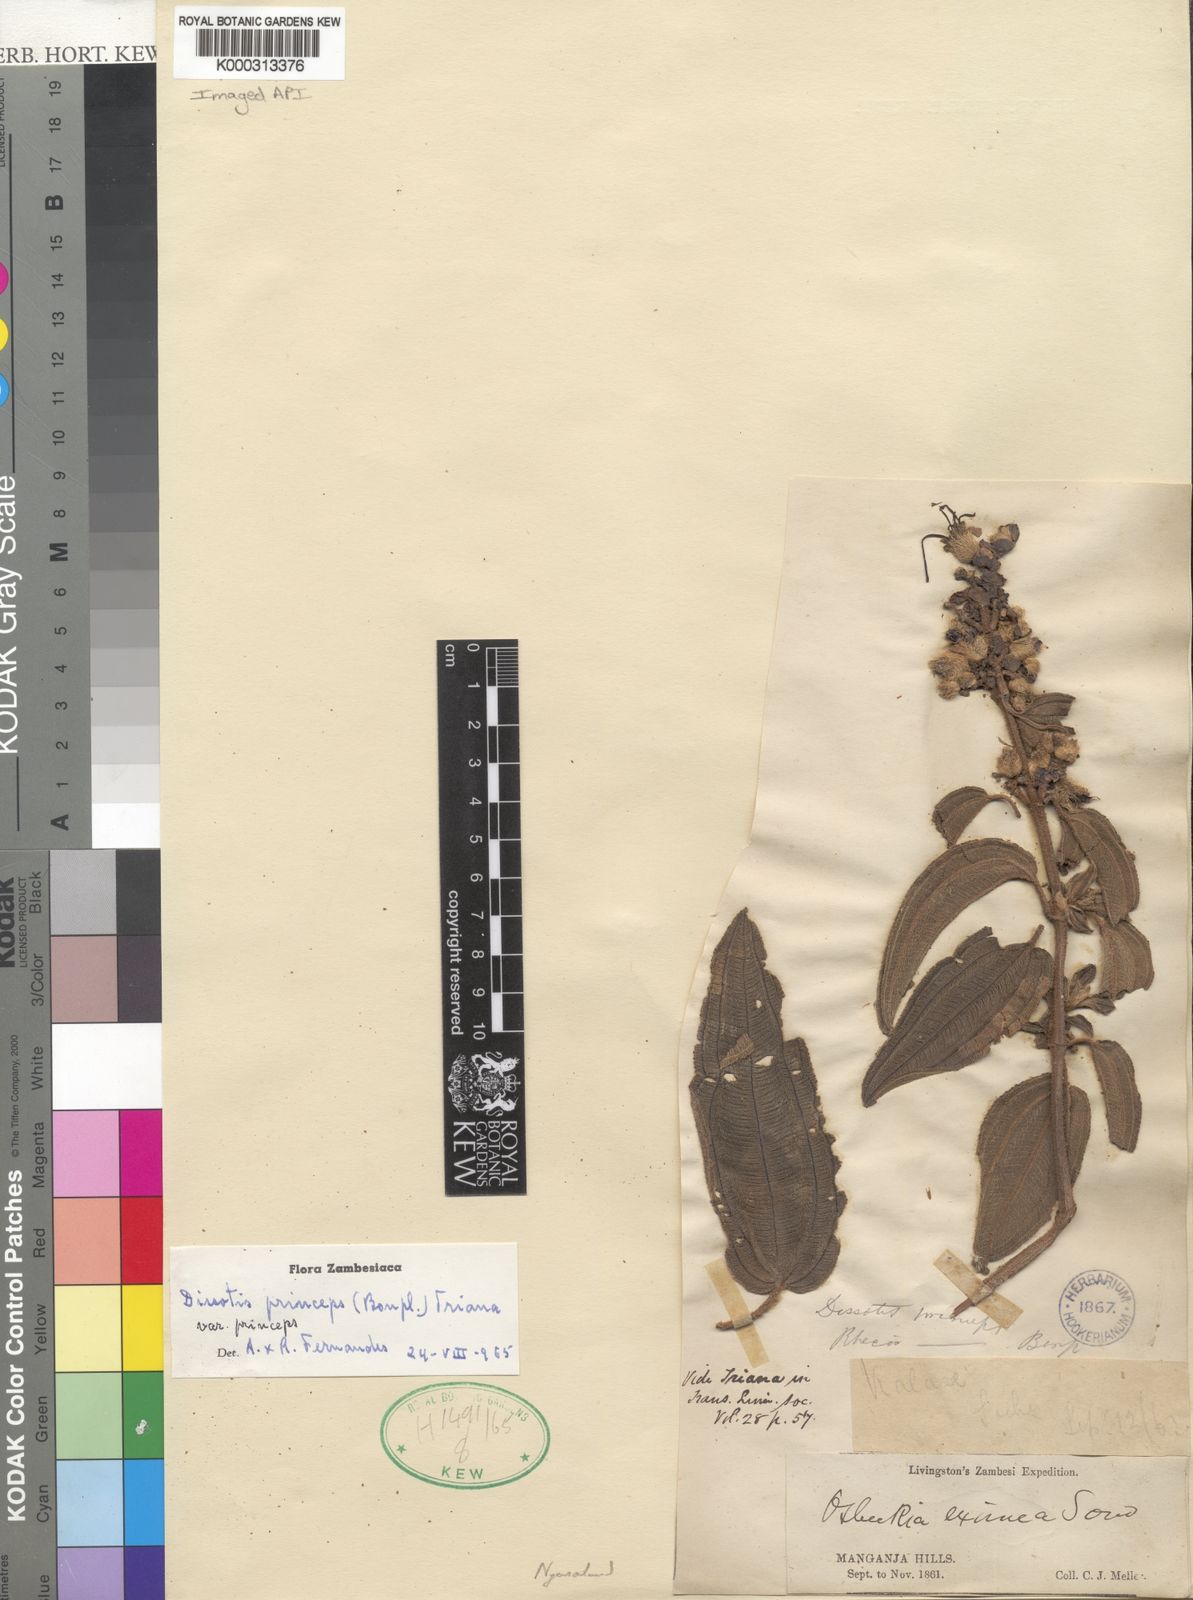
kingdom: Plantae
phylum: Tracheophyta
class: Magnoliopsida
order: Myrtales
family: Melastomataceae
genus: Rosettea
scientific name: Rosettea princeps
